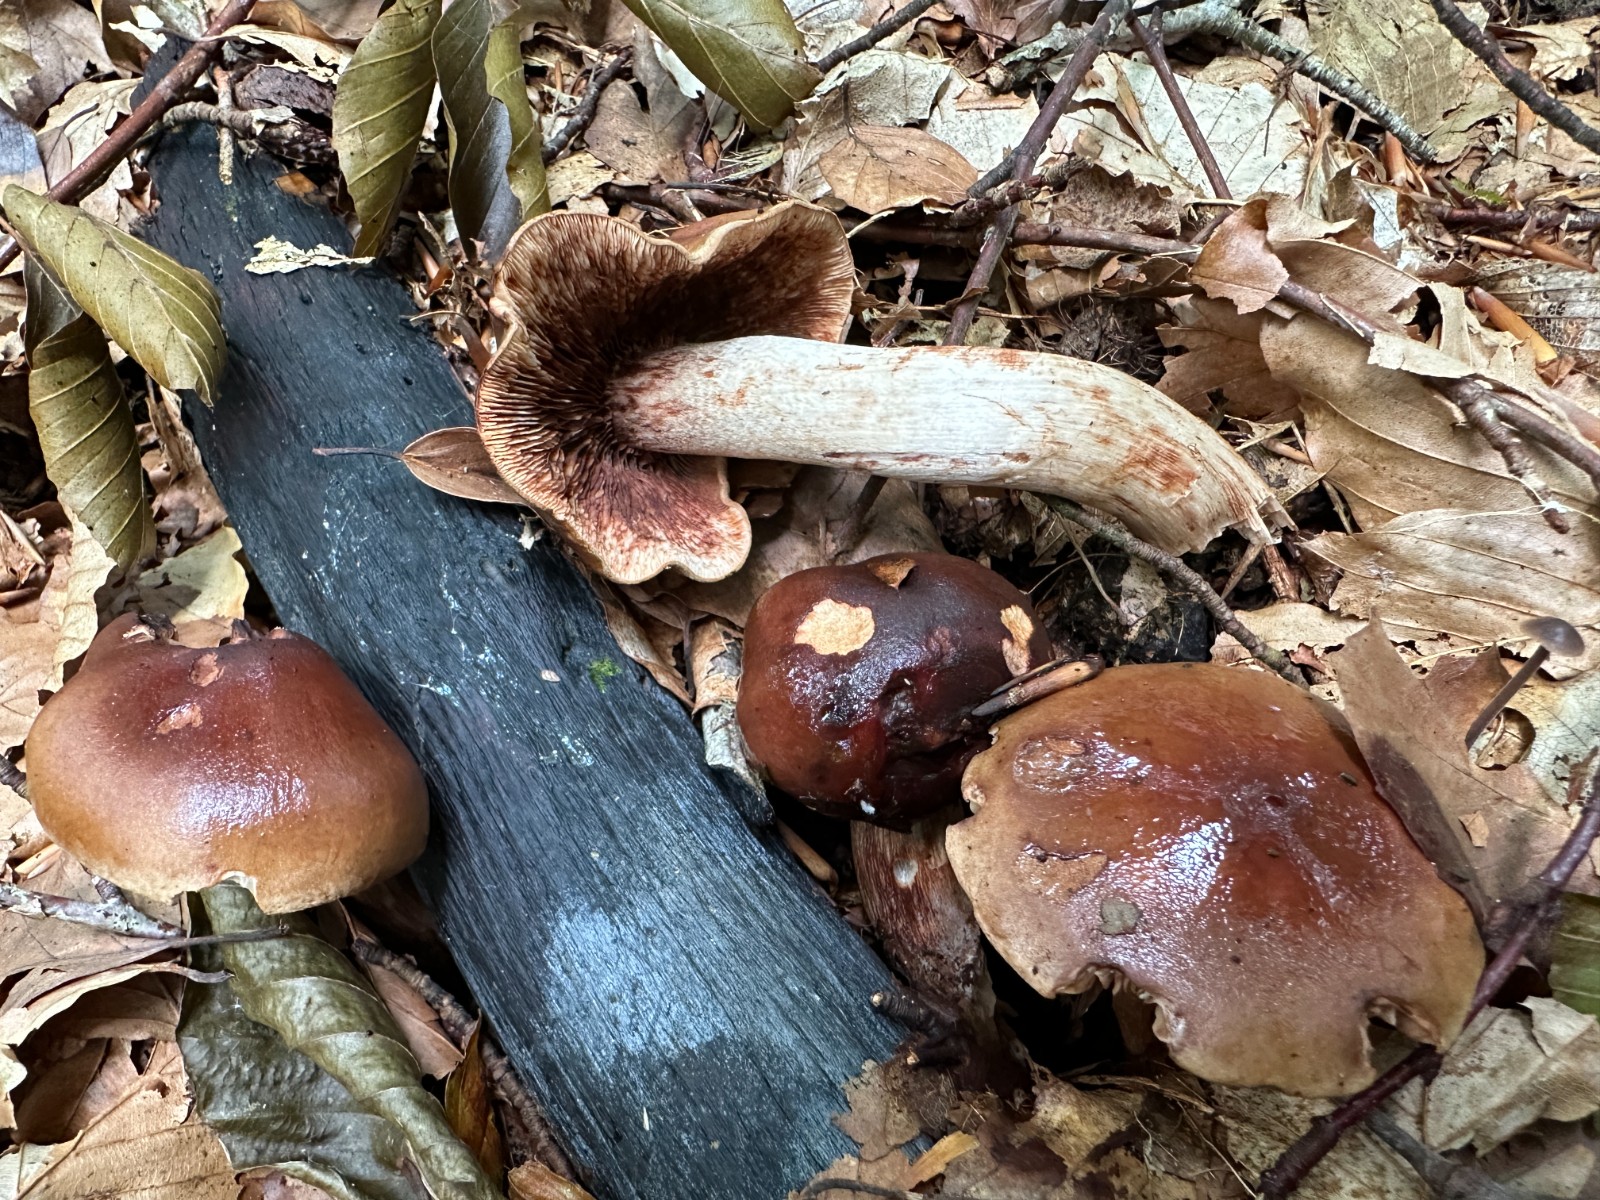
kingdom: Fungi
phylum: Basidiomycota
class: Agaricomycetes
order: Agaricales
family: Tricholomataceae
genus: Tricholoma
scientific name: Tricholoma ustale
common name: sveden ridderhat
